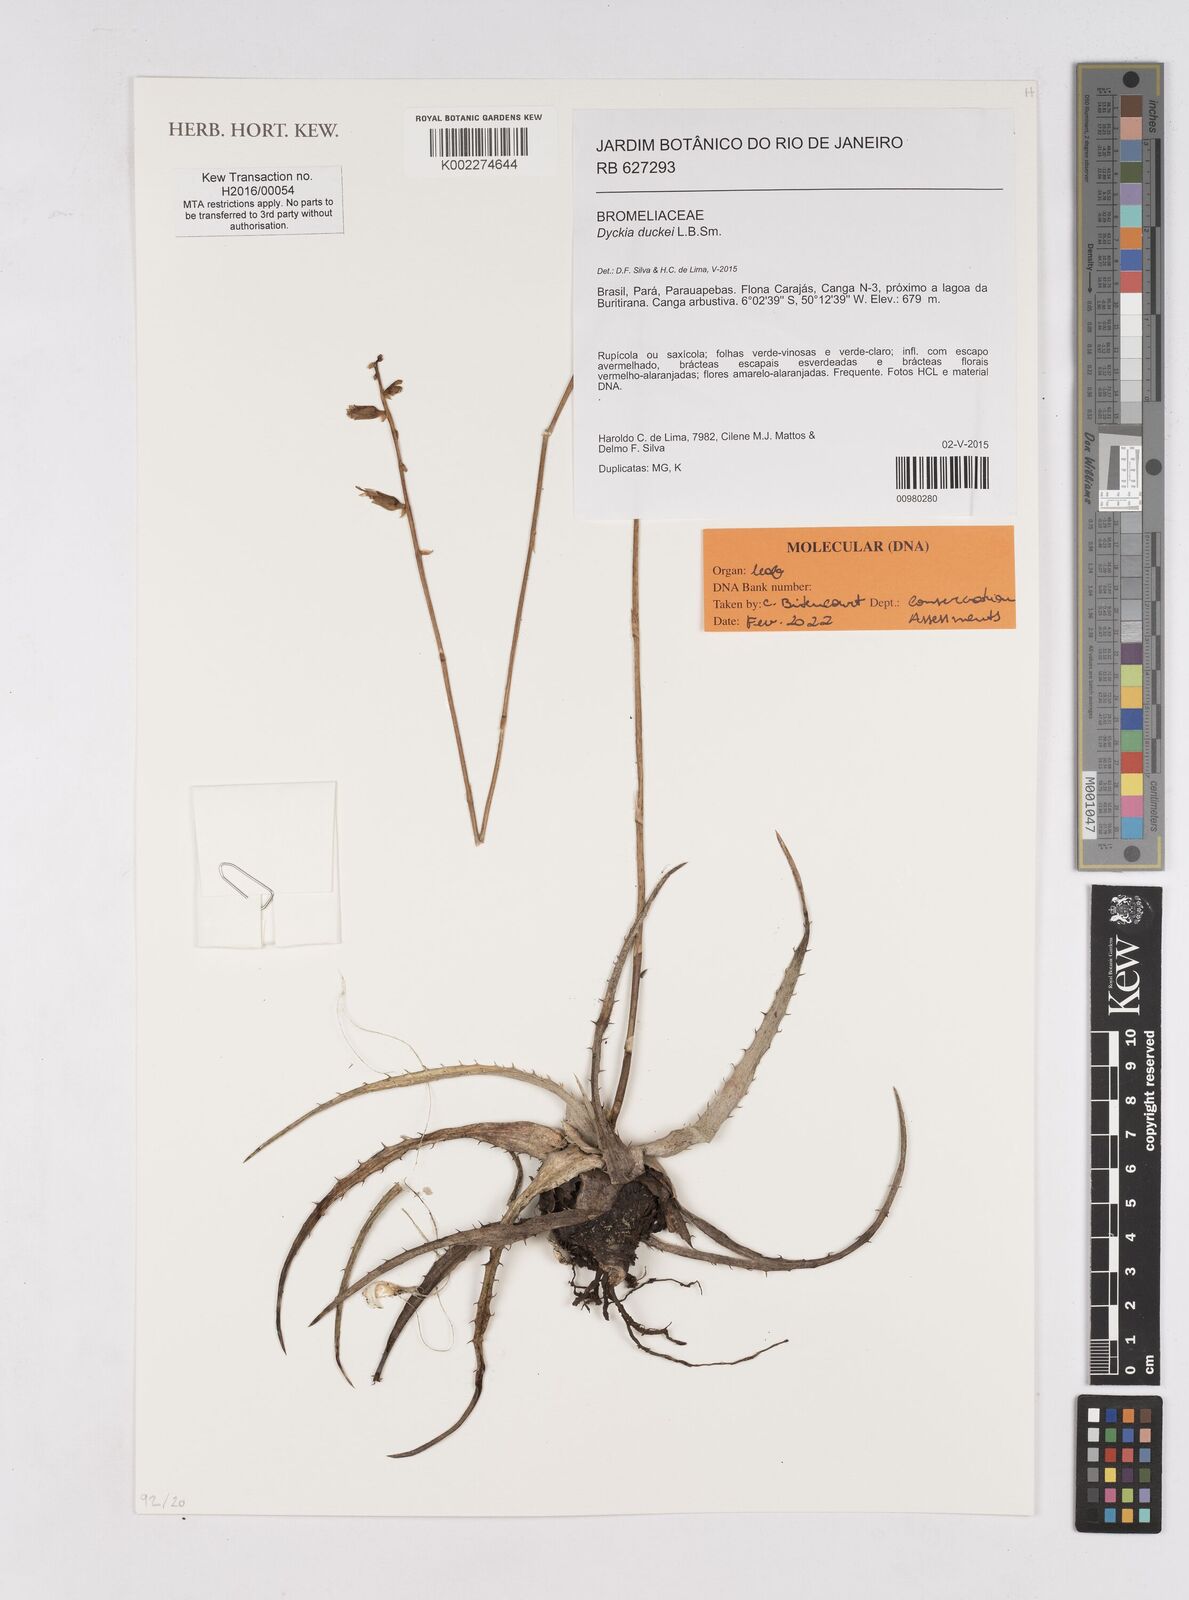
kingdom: Plantae
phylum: Tracheophyta
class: Liliopsida
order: Poales
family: Bromeliaceae
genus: Dyckia
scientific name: Dyckia duckei
